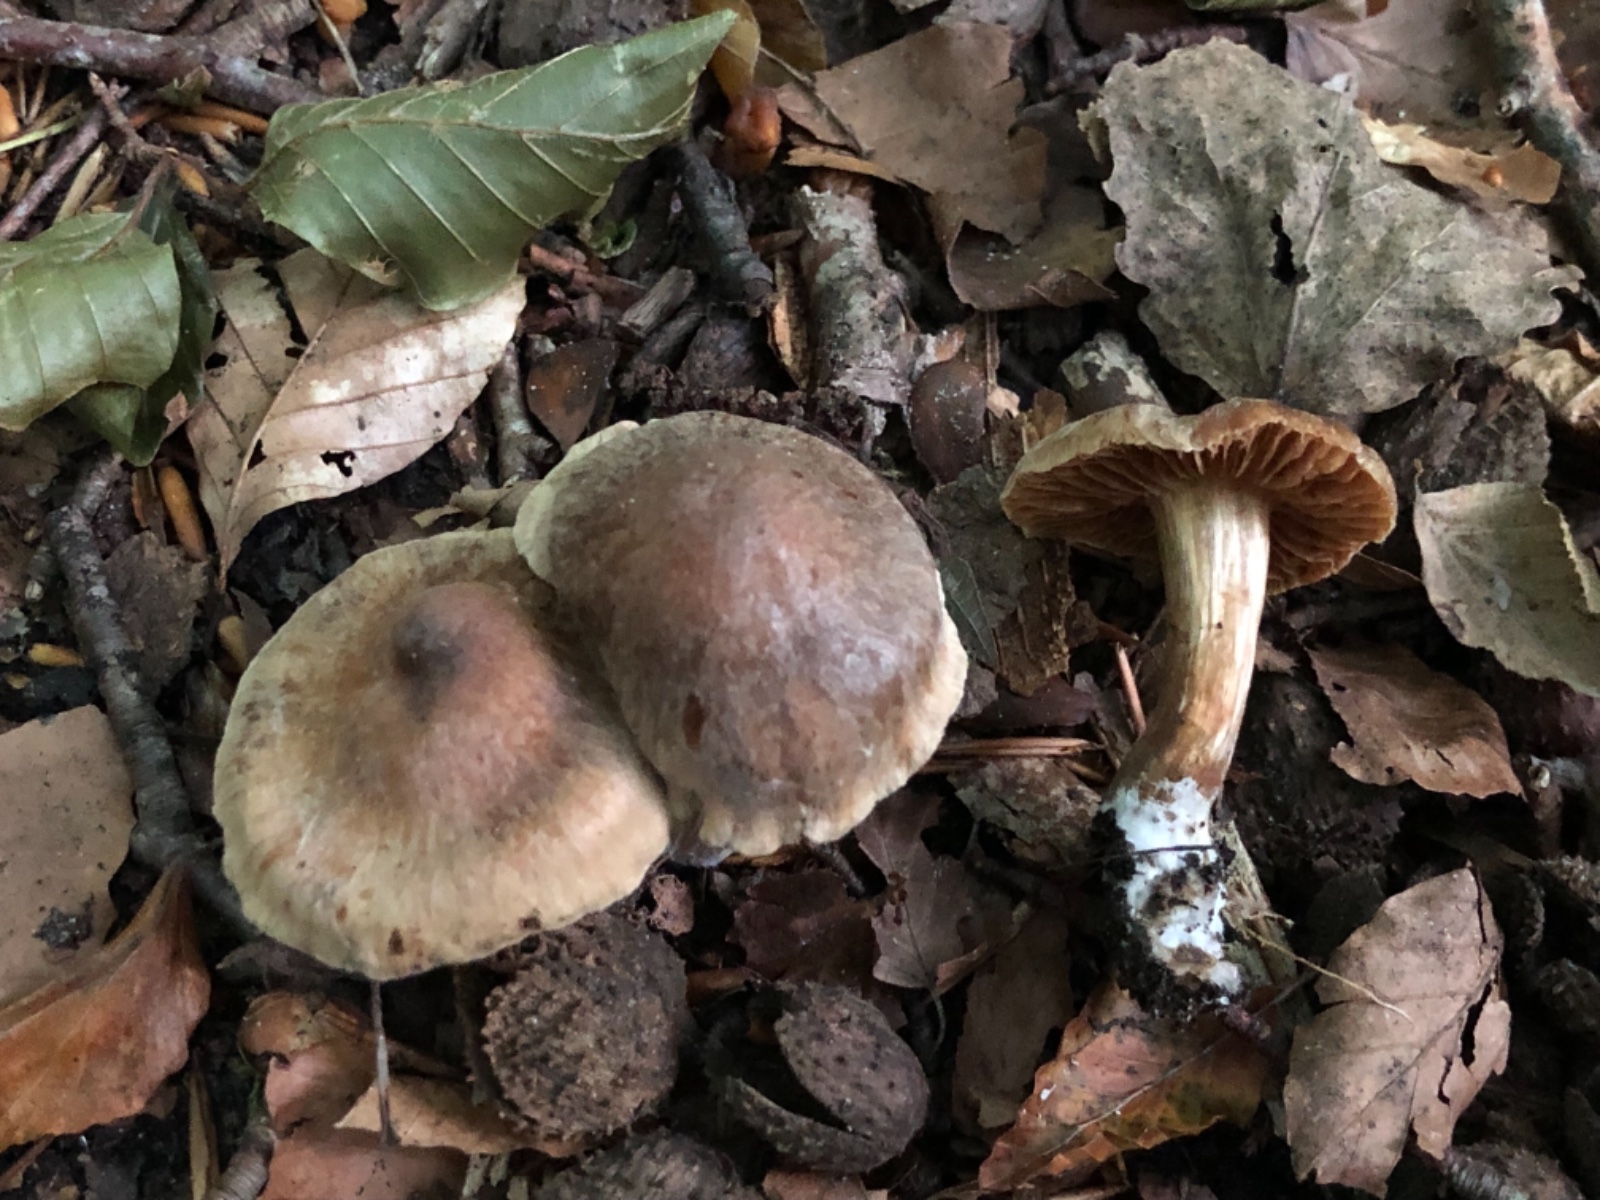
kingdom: Fungi
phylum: Basidiomycota
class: Agaricomycetes
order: Agaricales
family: Cortinariaceae
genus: Cortinarius
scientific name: Cortinarius epipurrus
